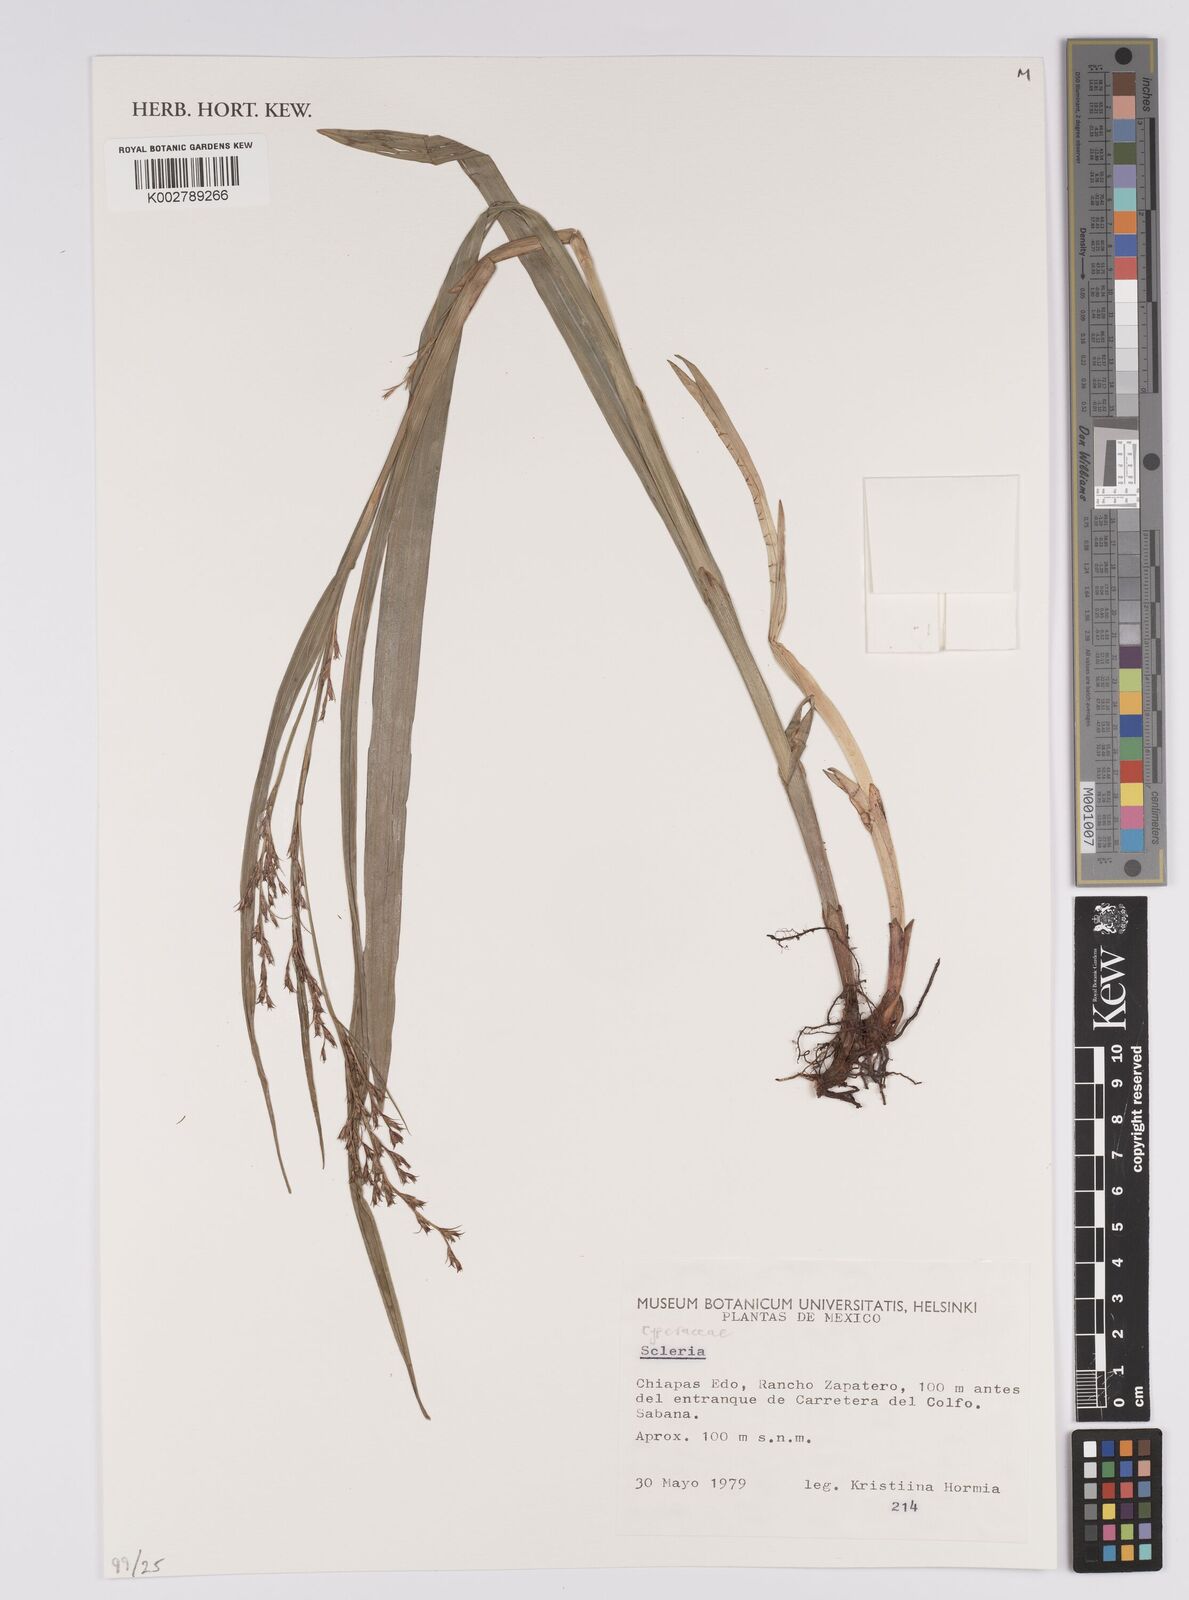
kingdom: Plantae
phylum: Tracheophyta
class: Liliopsida
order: Poales
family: Cyperaceae
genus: Scleria
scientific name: Scleria
